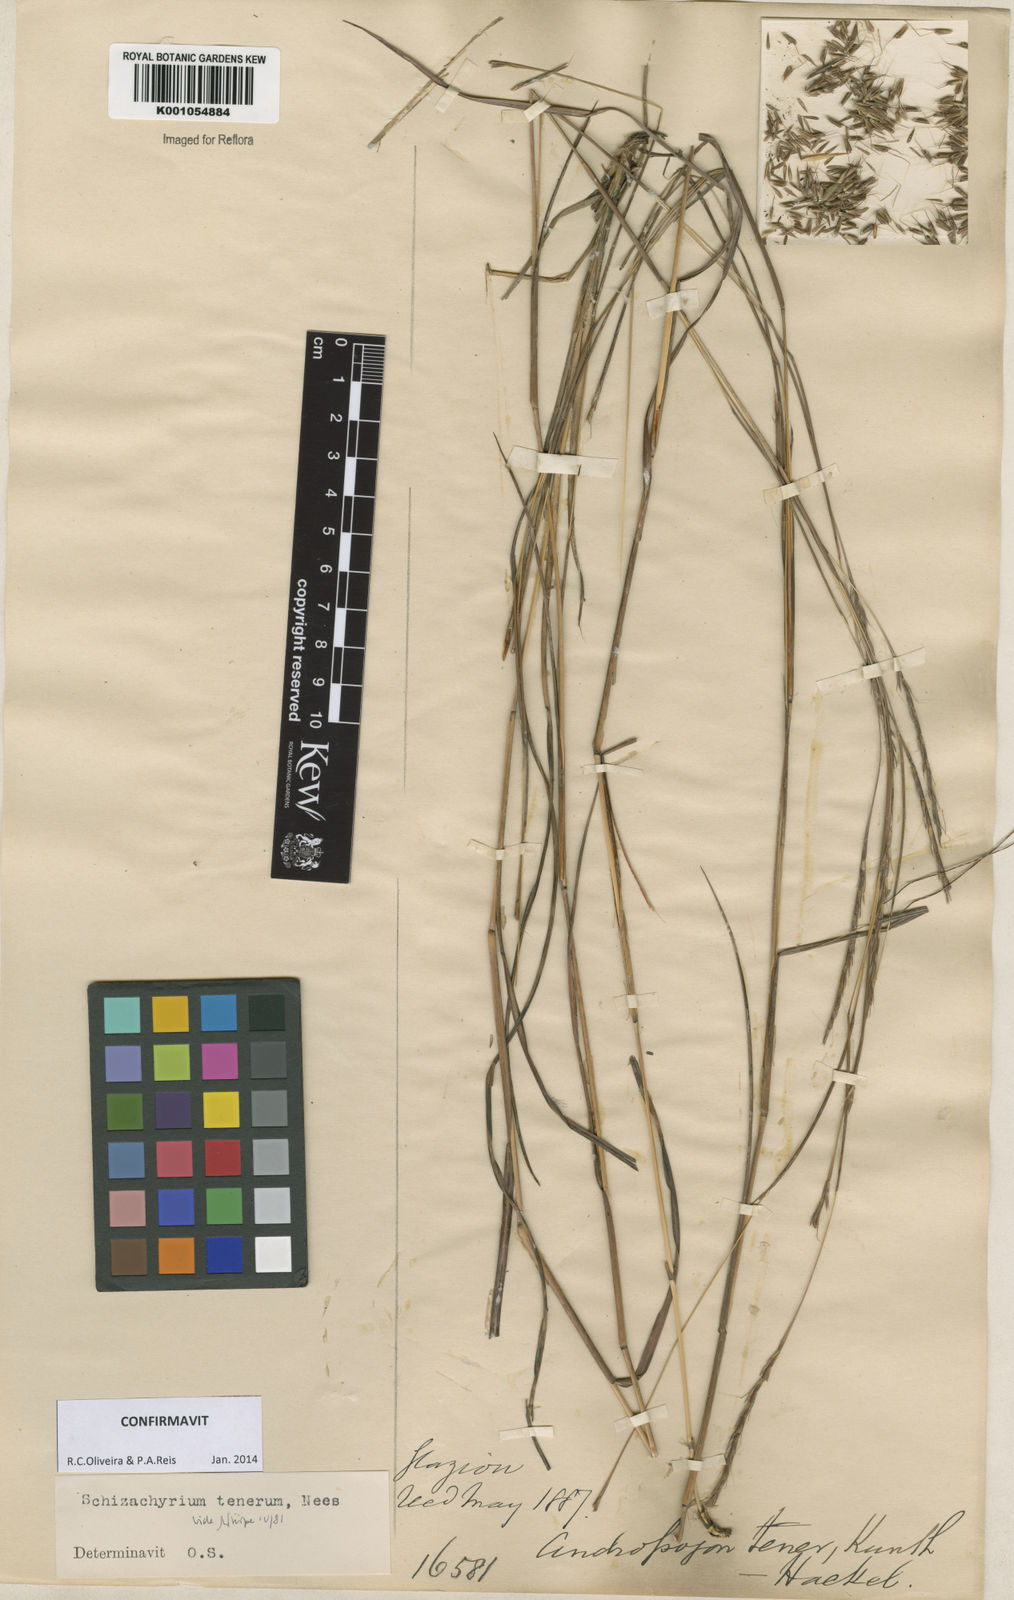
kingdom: Plantae
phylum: Tracheophyta
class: Liliopsida
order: Poales
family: Poaceae
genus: Andropogon
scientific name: Andropogon tener
